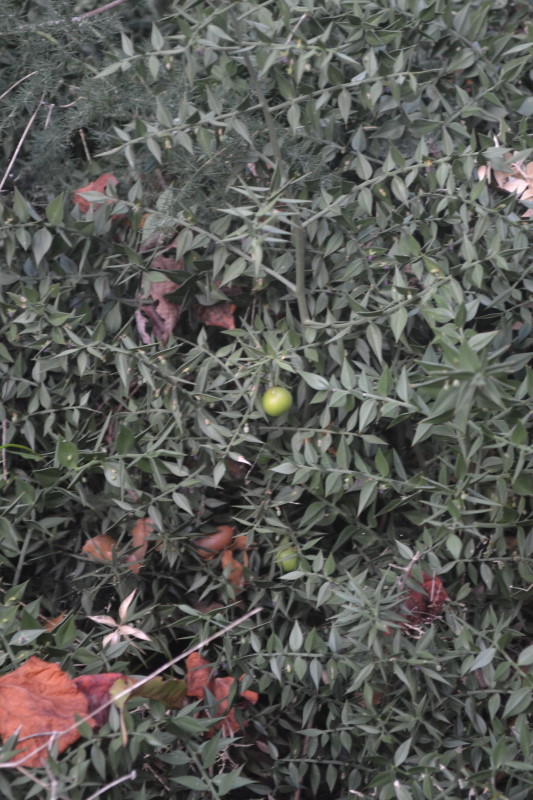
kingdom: Plantae
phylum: Tracheophyta
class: Liliopsida
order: Asparagales
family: Asparagaceae
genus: Ruscus
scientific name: Ruscus aculeatus
